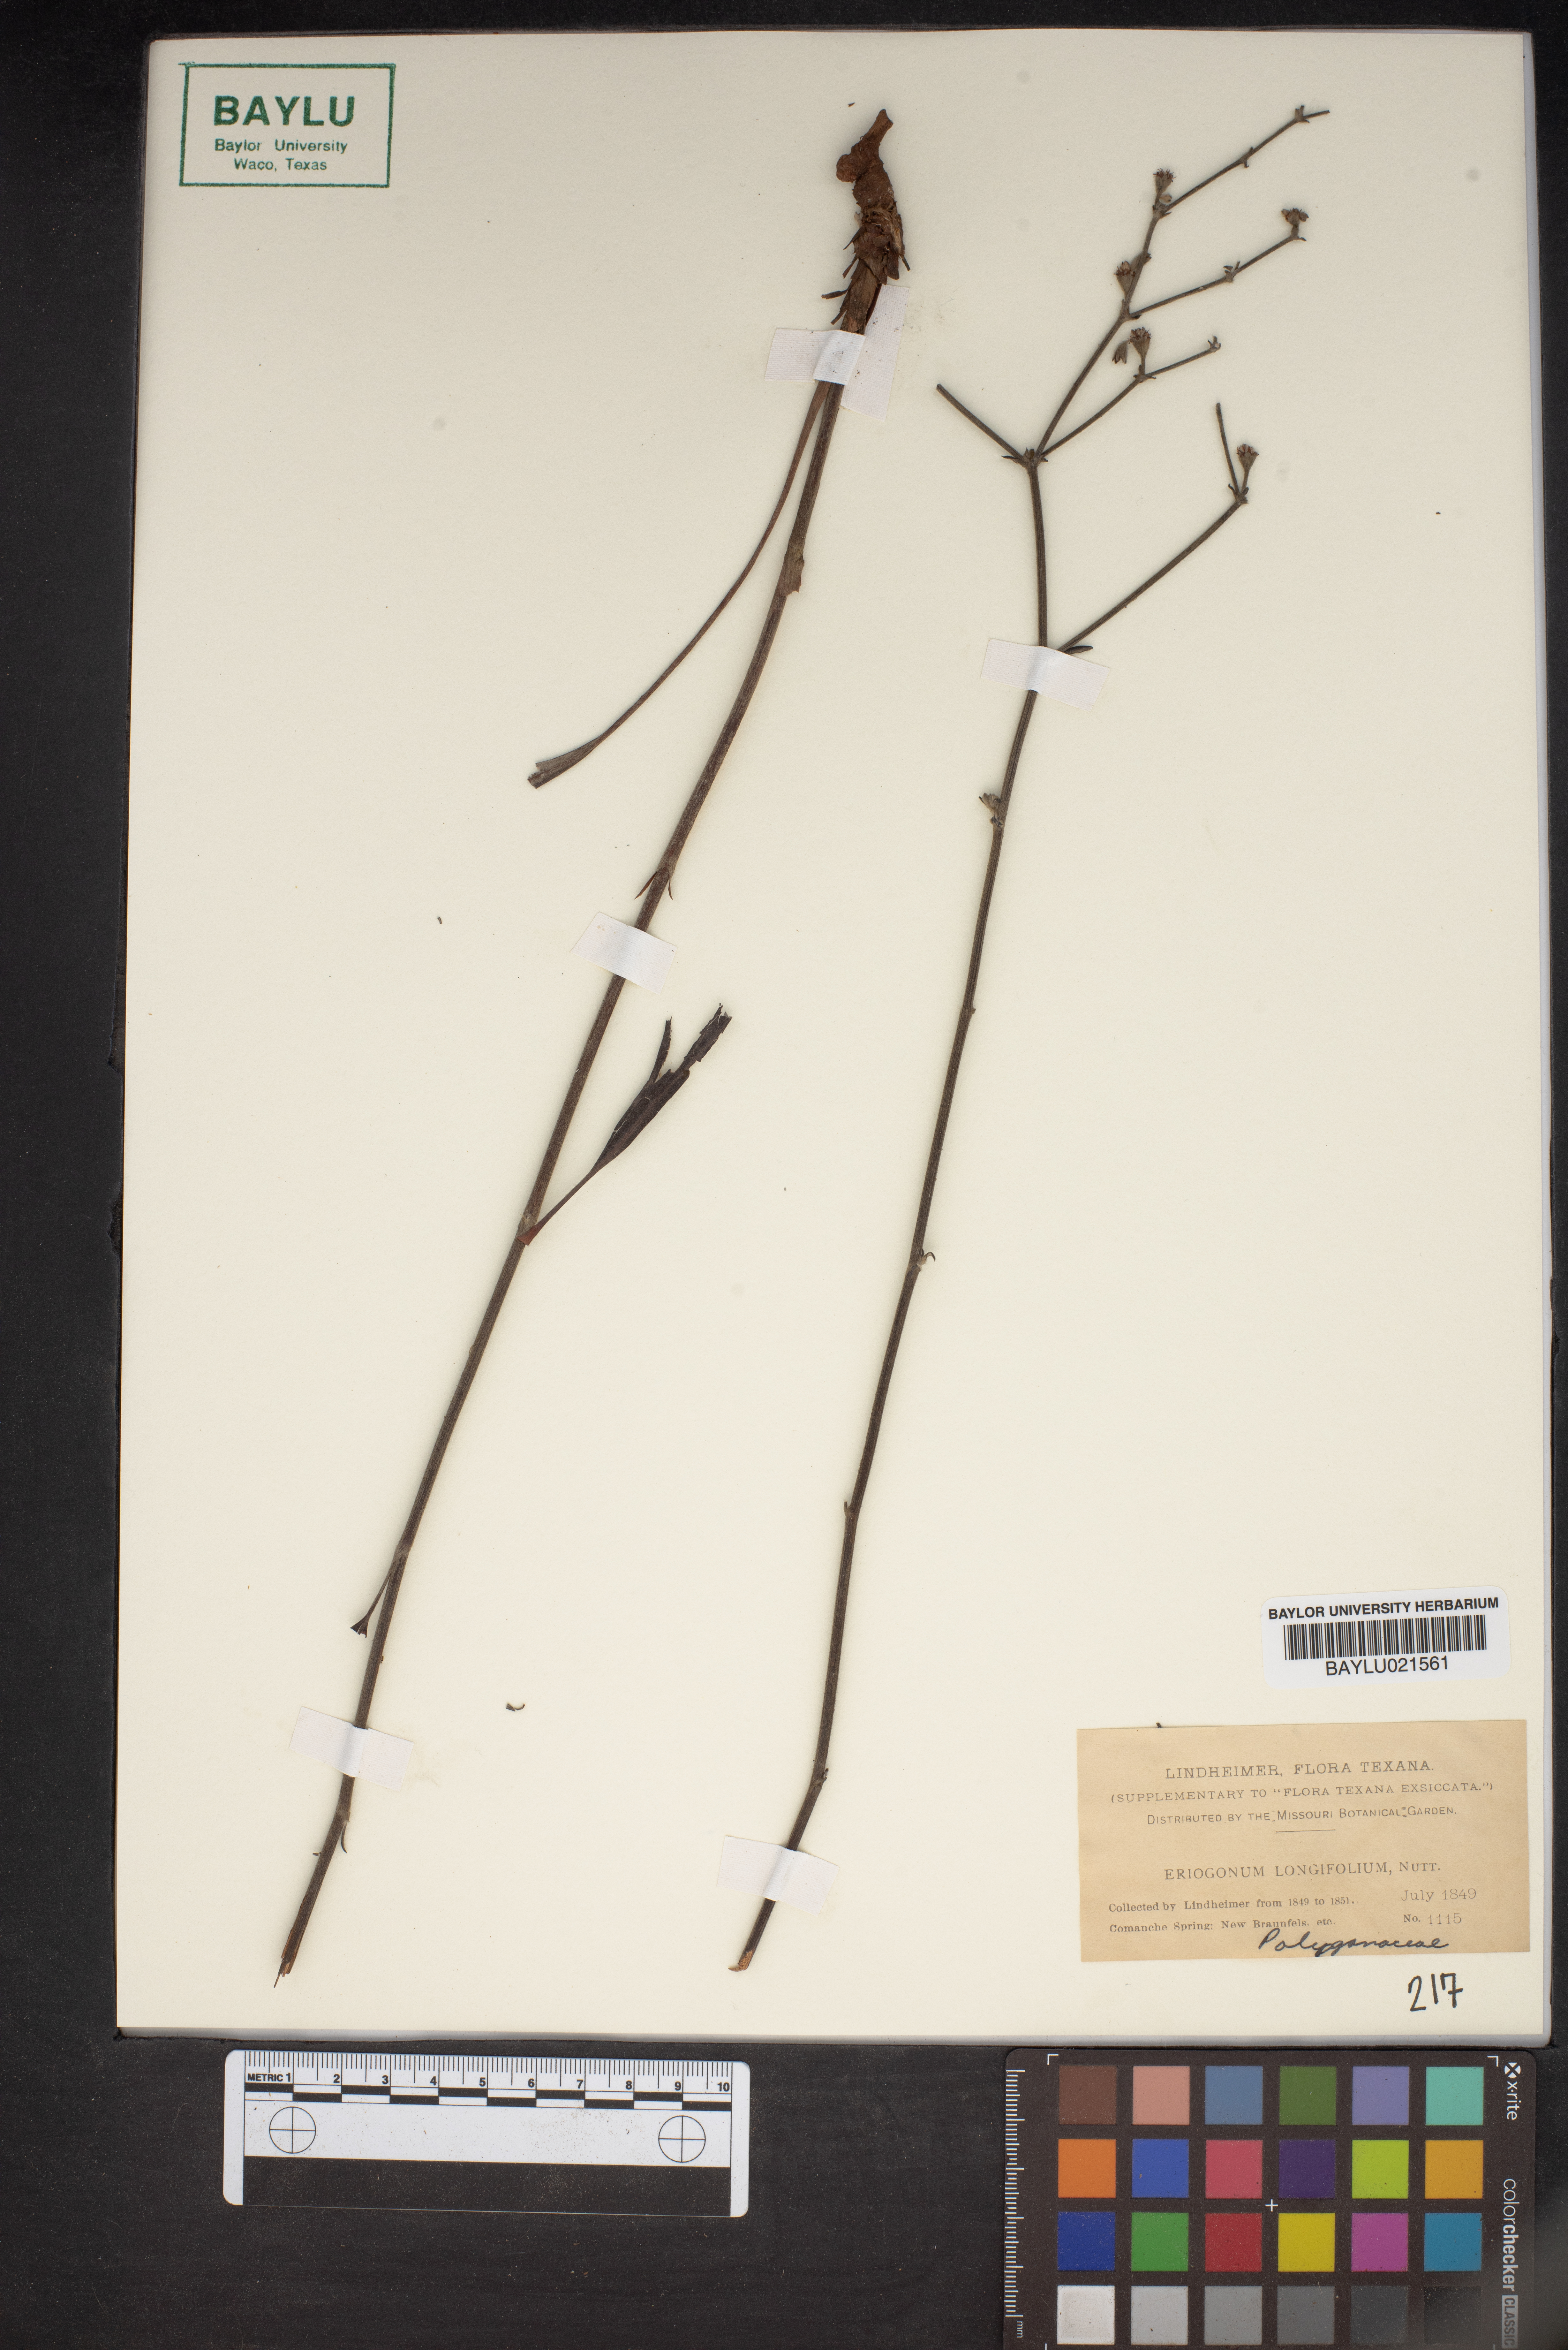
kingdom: Plantae
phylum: Tracheophyta
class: Magnoliopsida
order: Caryophyllales
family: Polygonaceae
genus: Eriogonum
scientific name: Eriogonum longifolium
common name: Longleaf wild buckwheat
